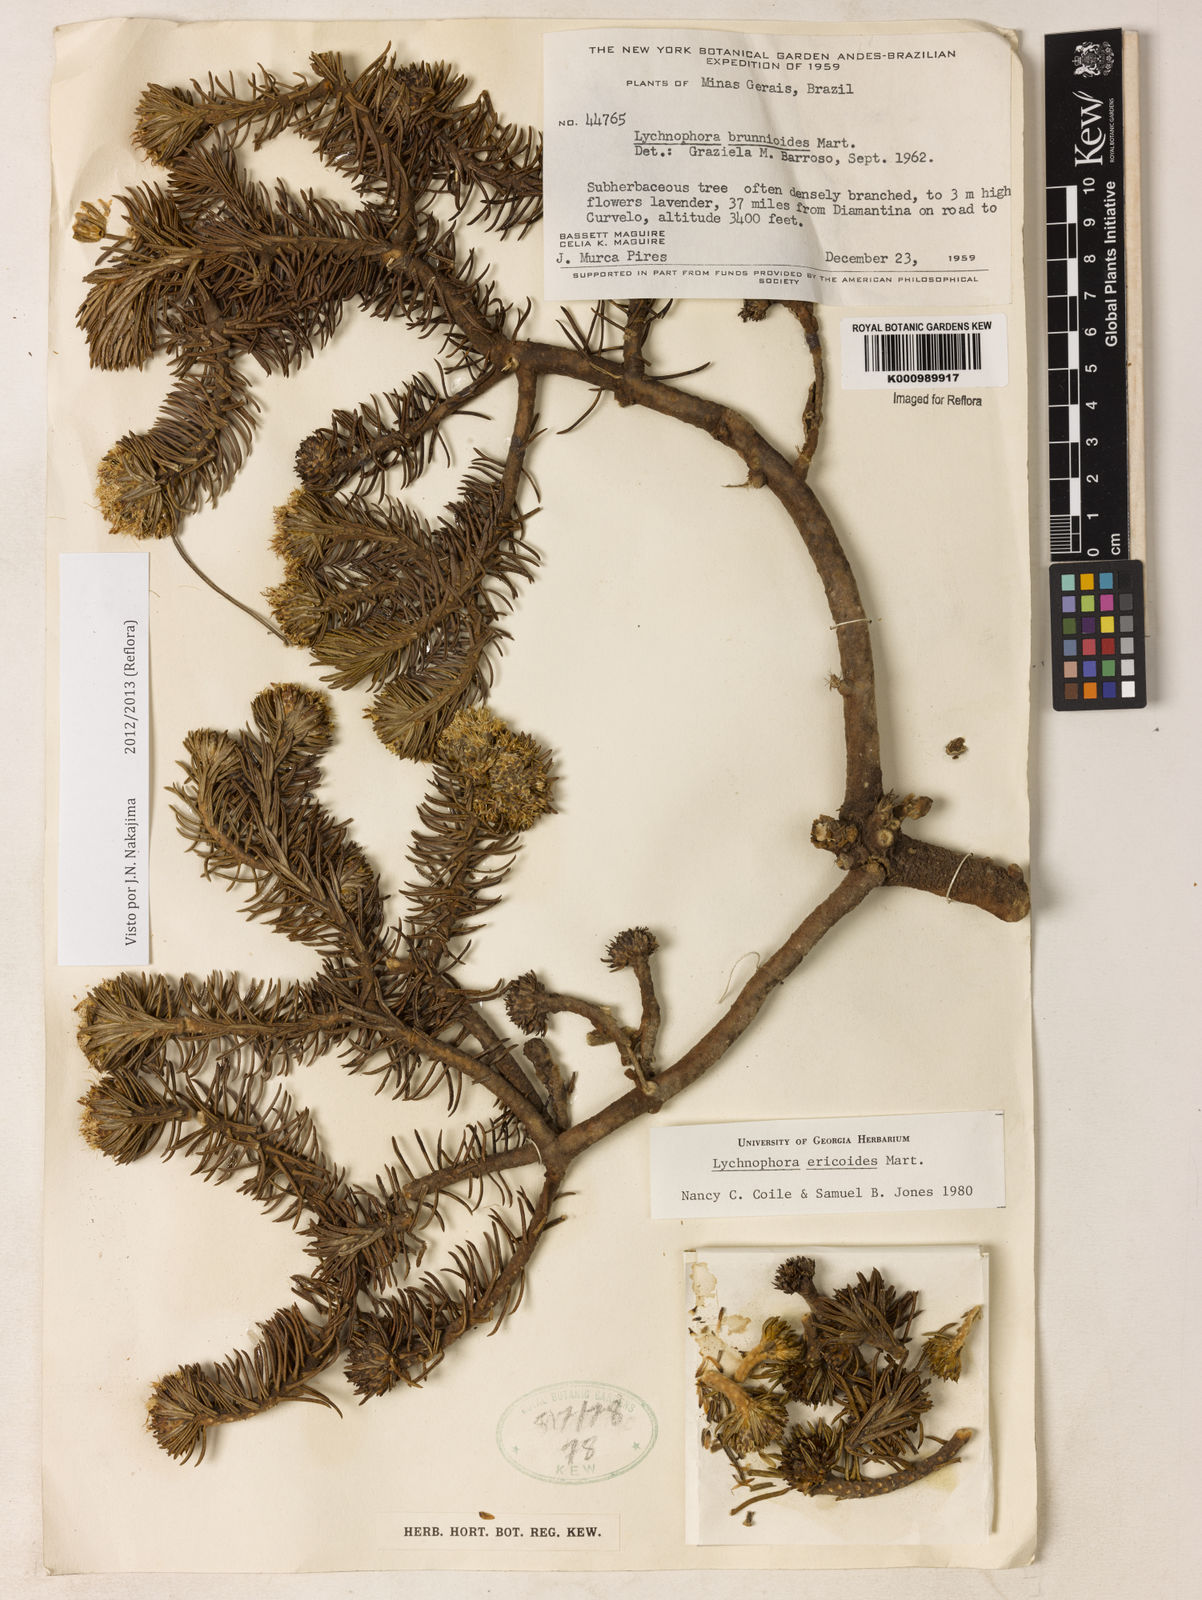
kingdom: Plantae
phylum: Tracheophyta
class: Magnoliopsida
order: Asterales
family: Asteraceae
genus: Lychnophora
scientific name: Lychnophora ericoides
